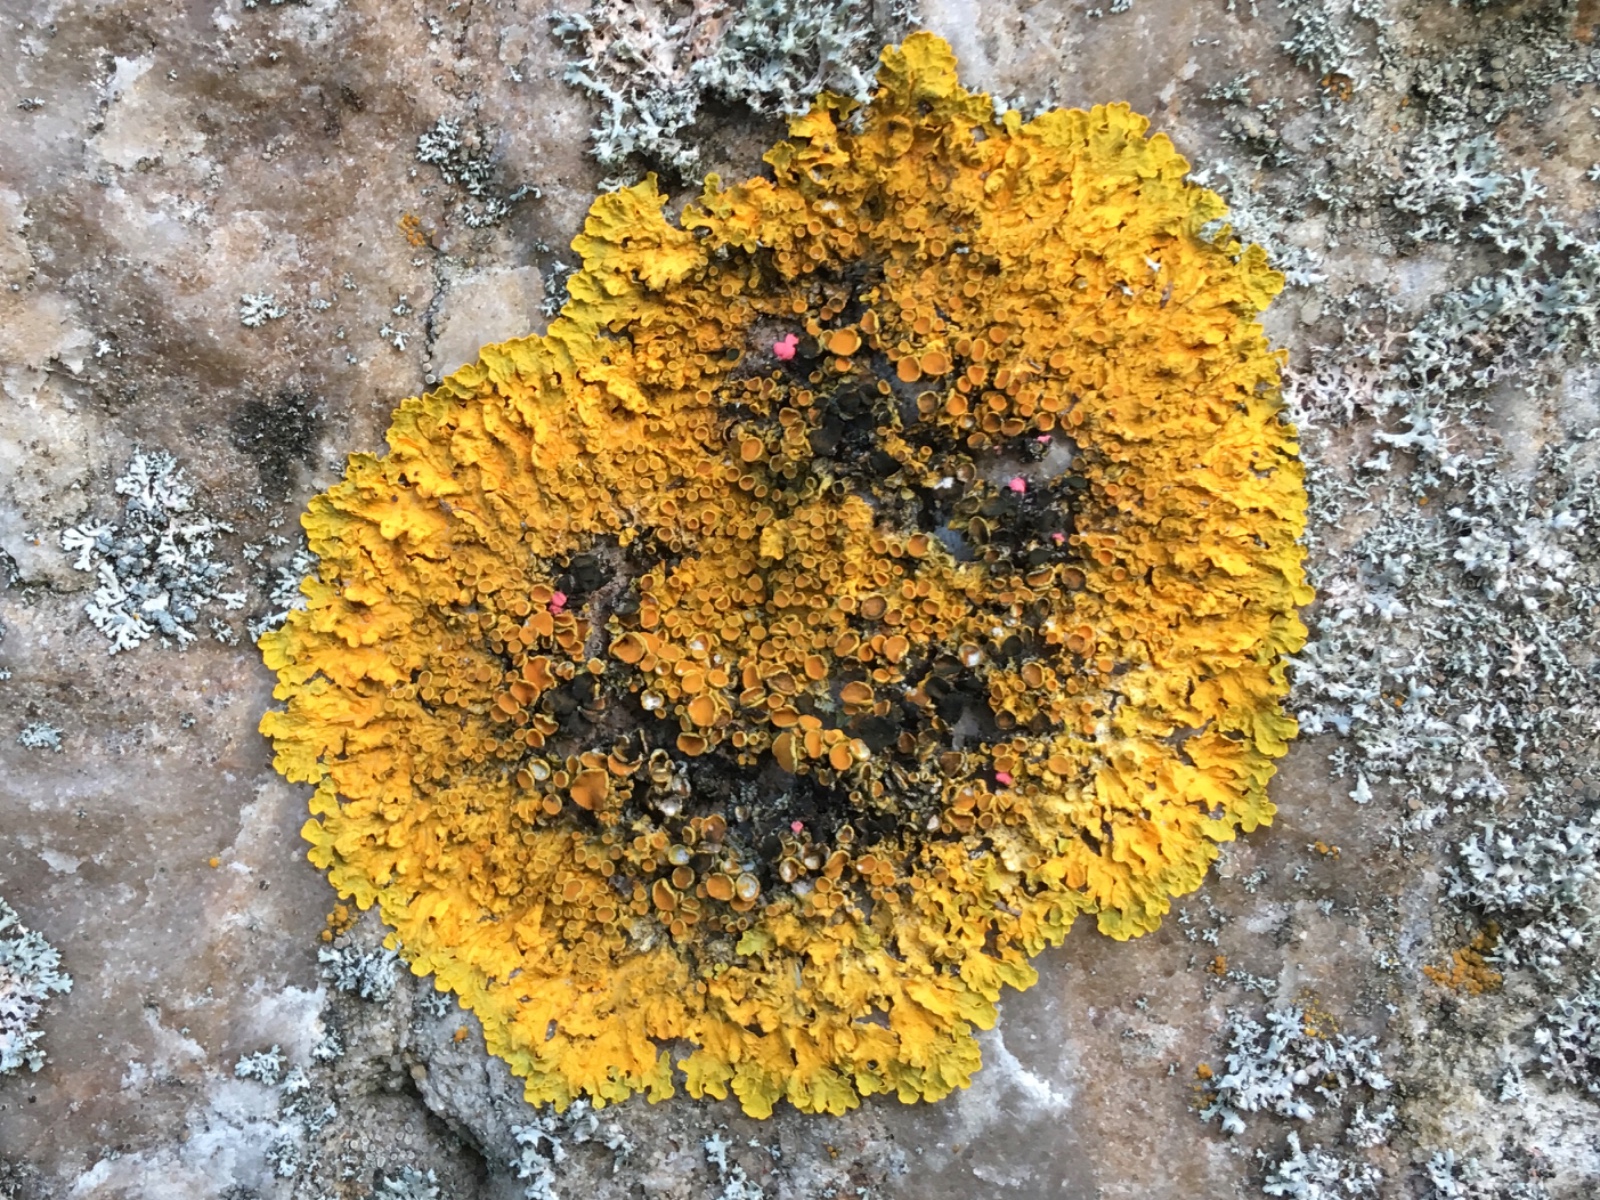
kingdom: Fungi
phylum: Ascomycota
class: Dothideomycetes
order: Mycosphaerellales
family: Teratosphaeriaceae
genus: Xanthoriicola
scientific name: Xanthoriicola physciae
